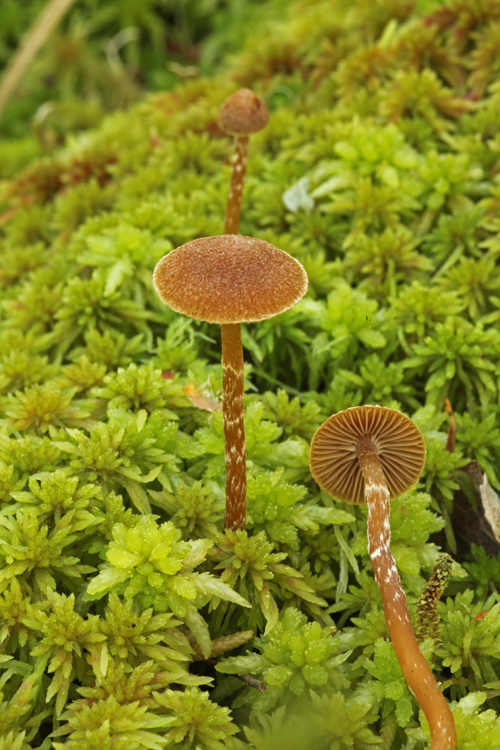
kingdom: Fungi
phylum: Basidiomycota
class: Agaricomycetes
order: Agaricales
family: Hymenogastraceae
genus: Galerina
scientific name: Galerina paludosa
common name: mose-hjelmhat
